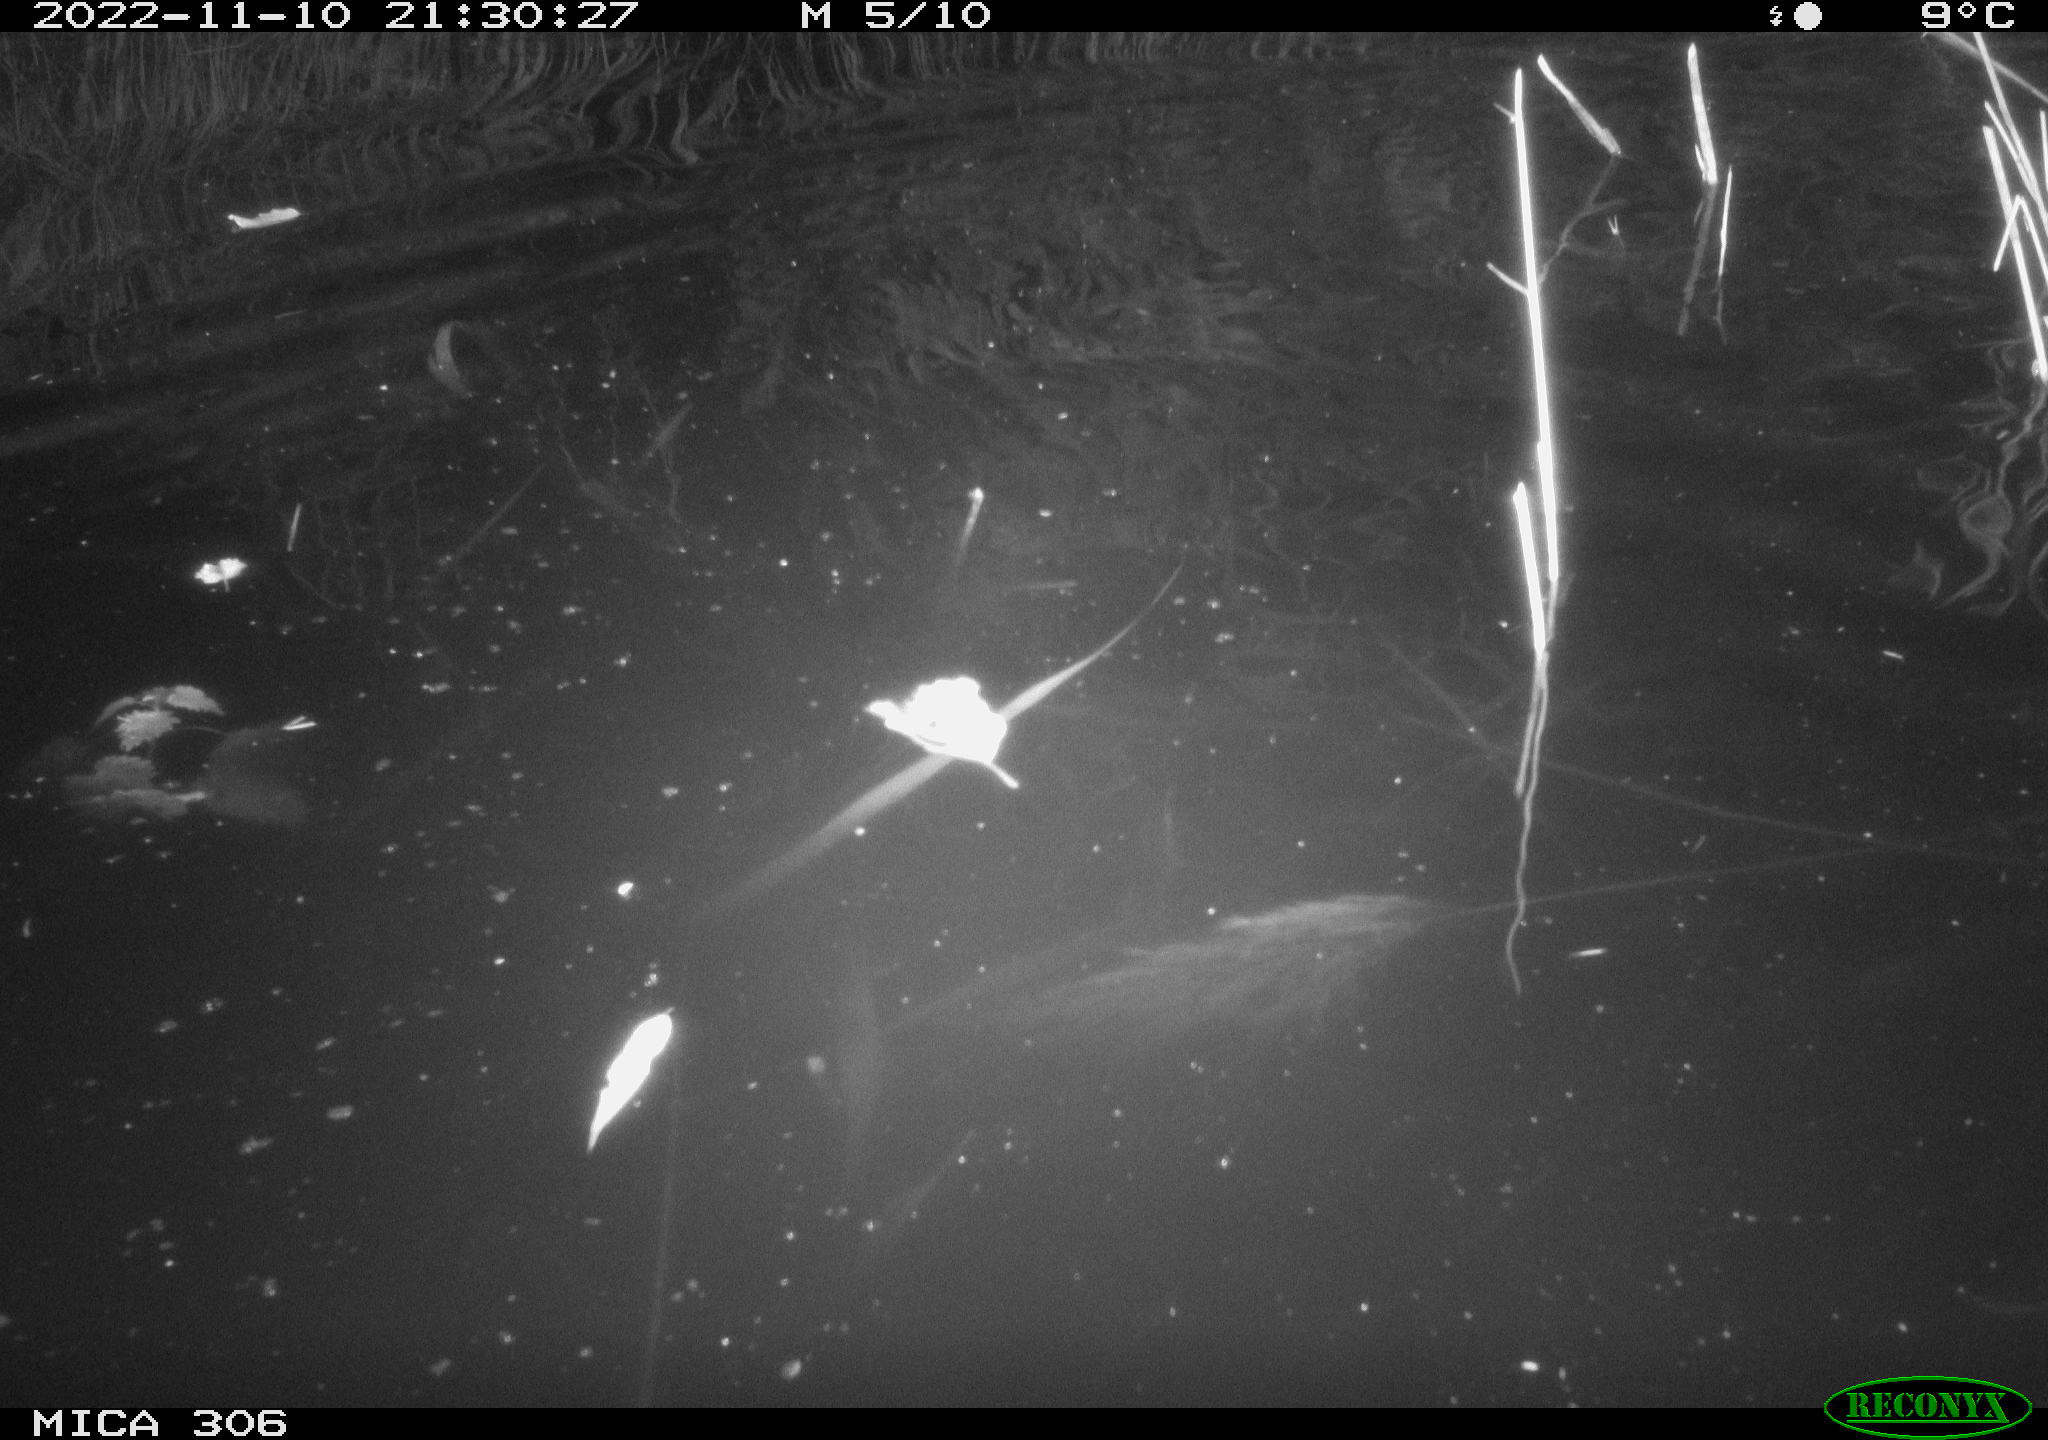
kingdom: Animalia
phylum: Chordata
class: Mammalia
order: Rodentia
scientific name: Rodentia
